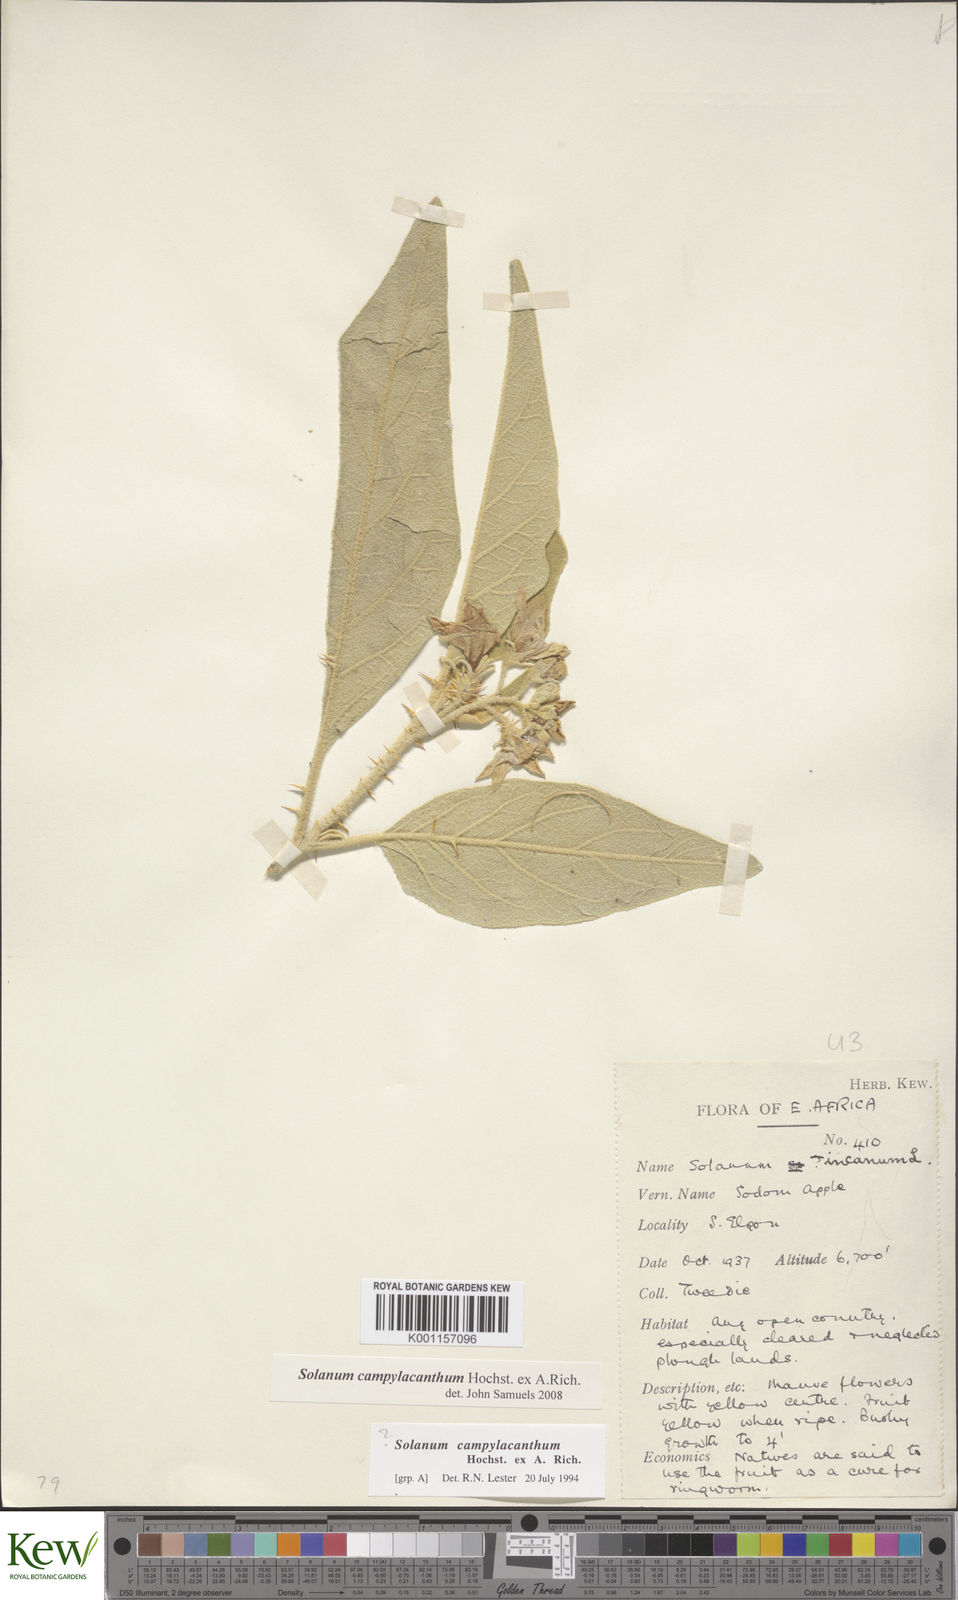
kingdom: Plantae
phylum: Tracheophyta
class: Magnoliopsida
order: Solanales
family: Solanaceae
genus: Solanum
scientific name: Solanum campylacanthum
